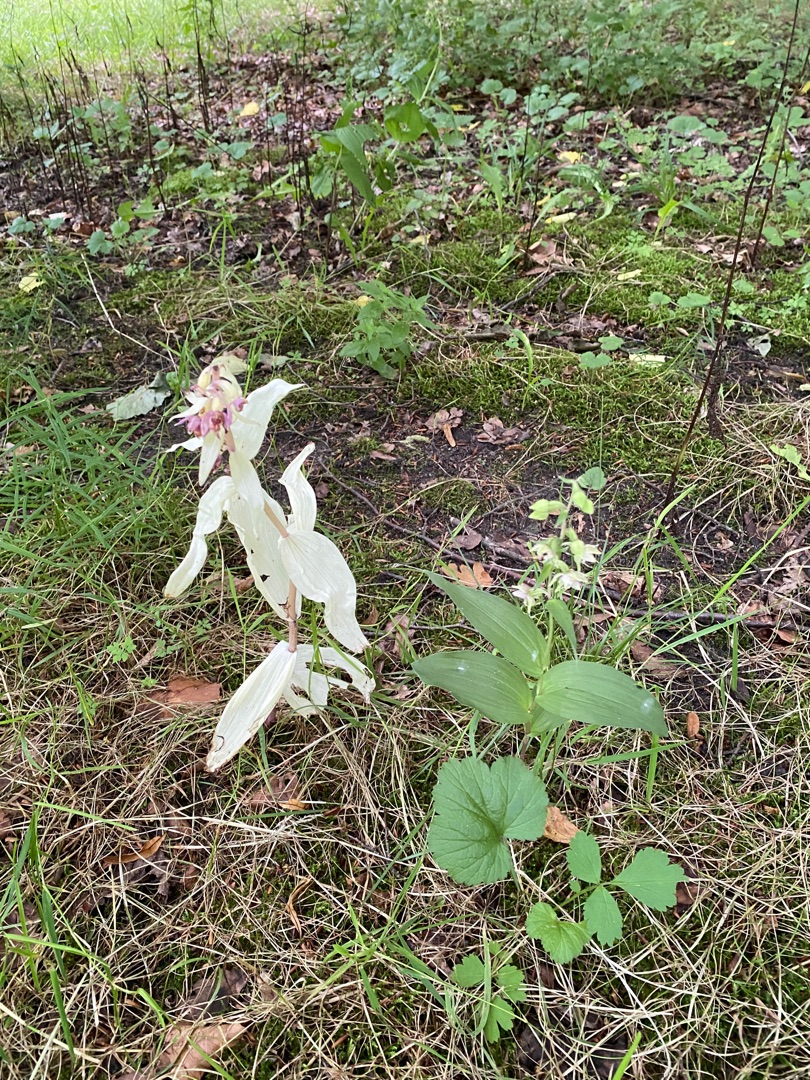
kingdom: Plantae
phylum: Tracheophyta
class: Liliopsida
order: Asparagales
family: Orchidaceae
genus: Epipactis
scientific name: Epipactis helleborine
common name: Skov-hullæbe
